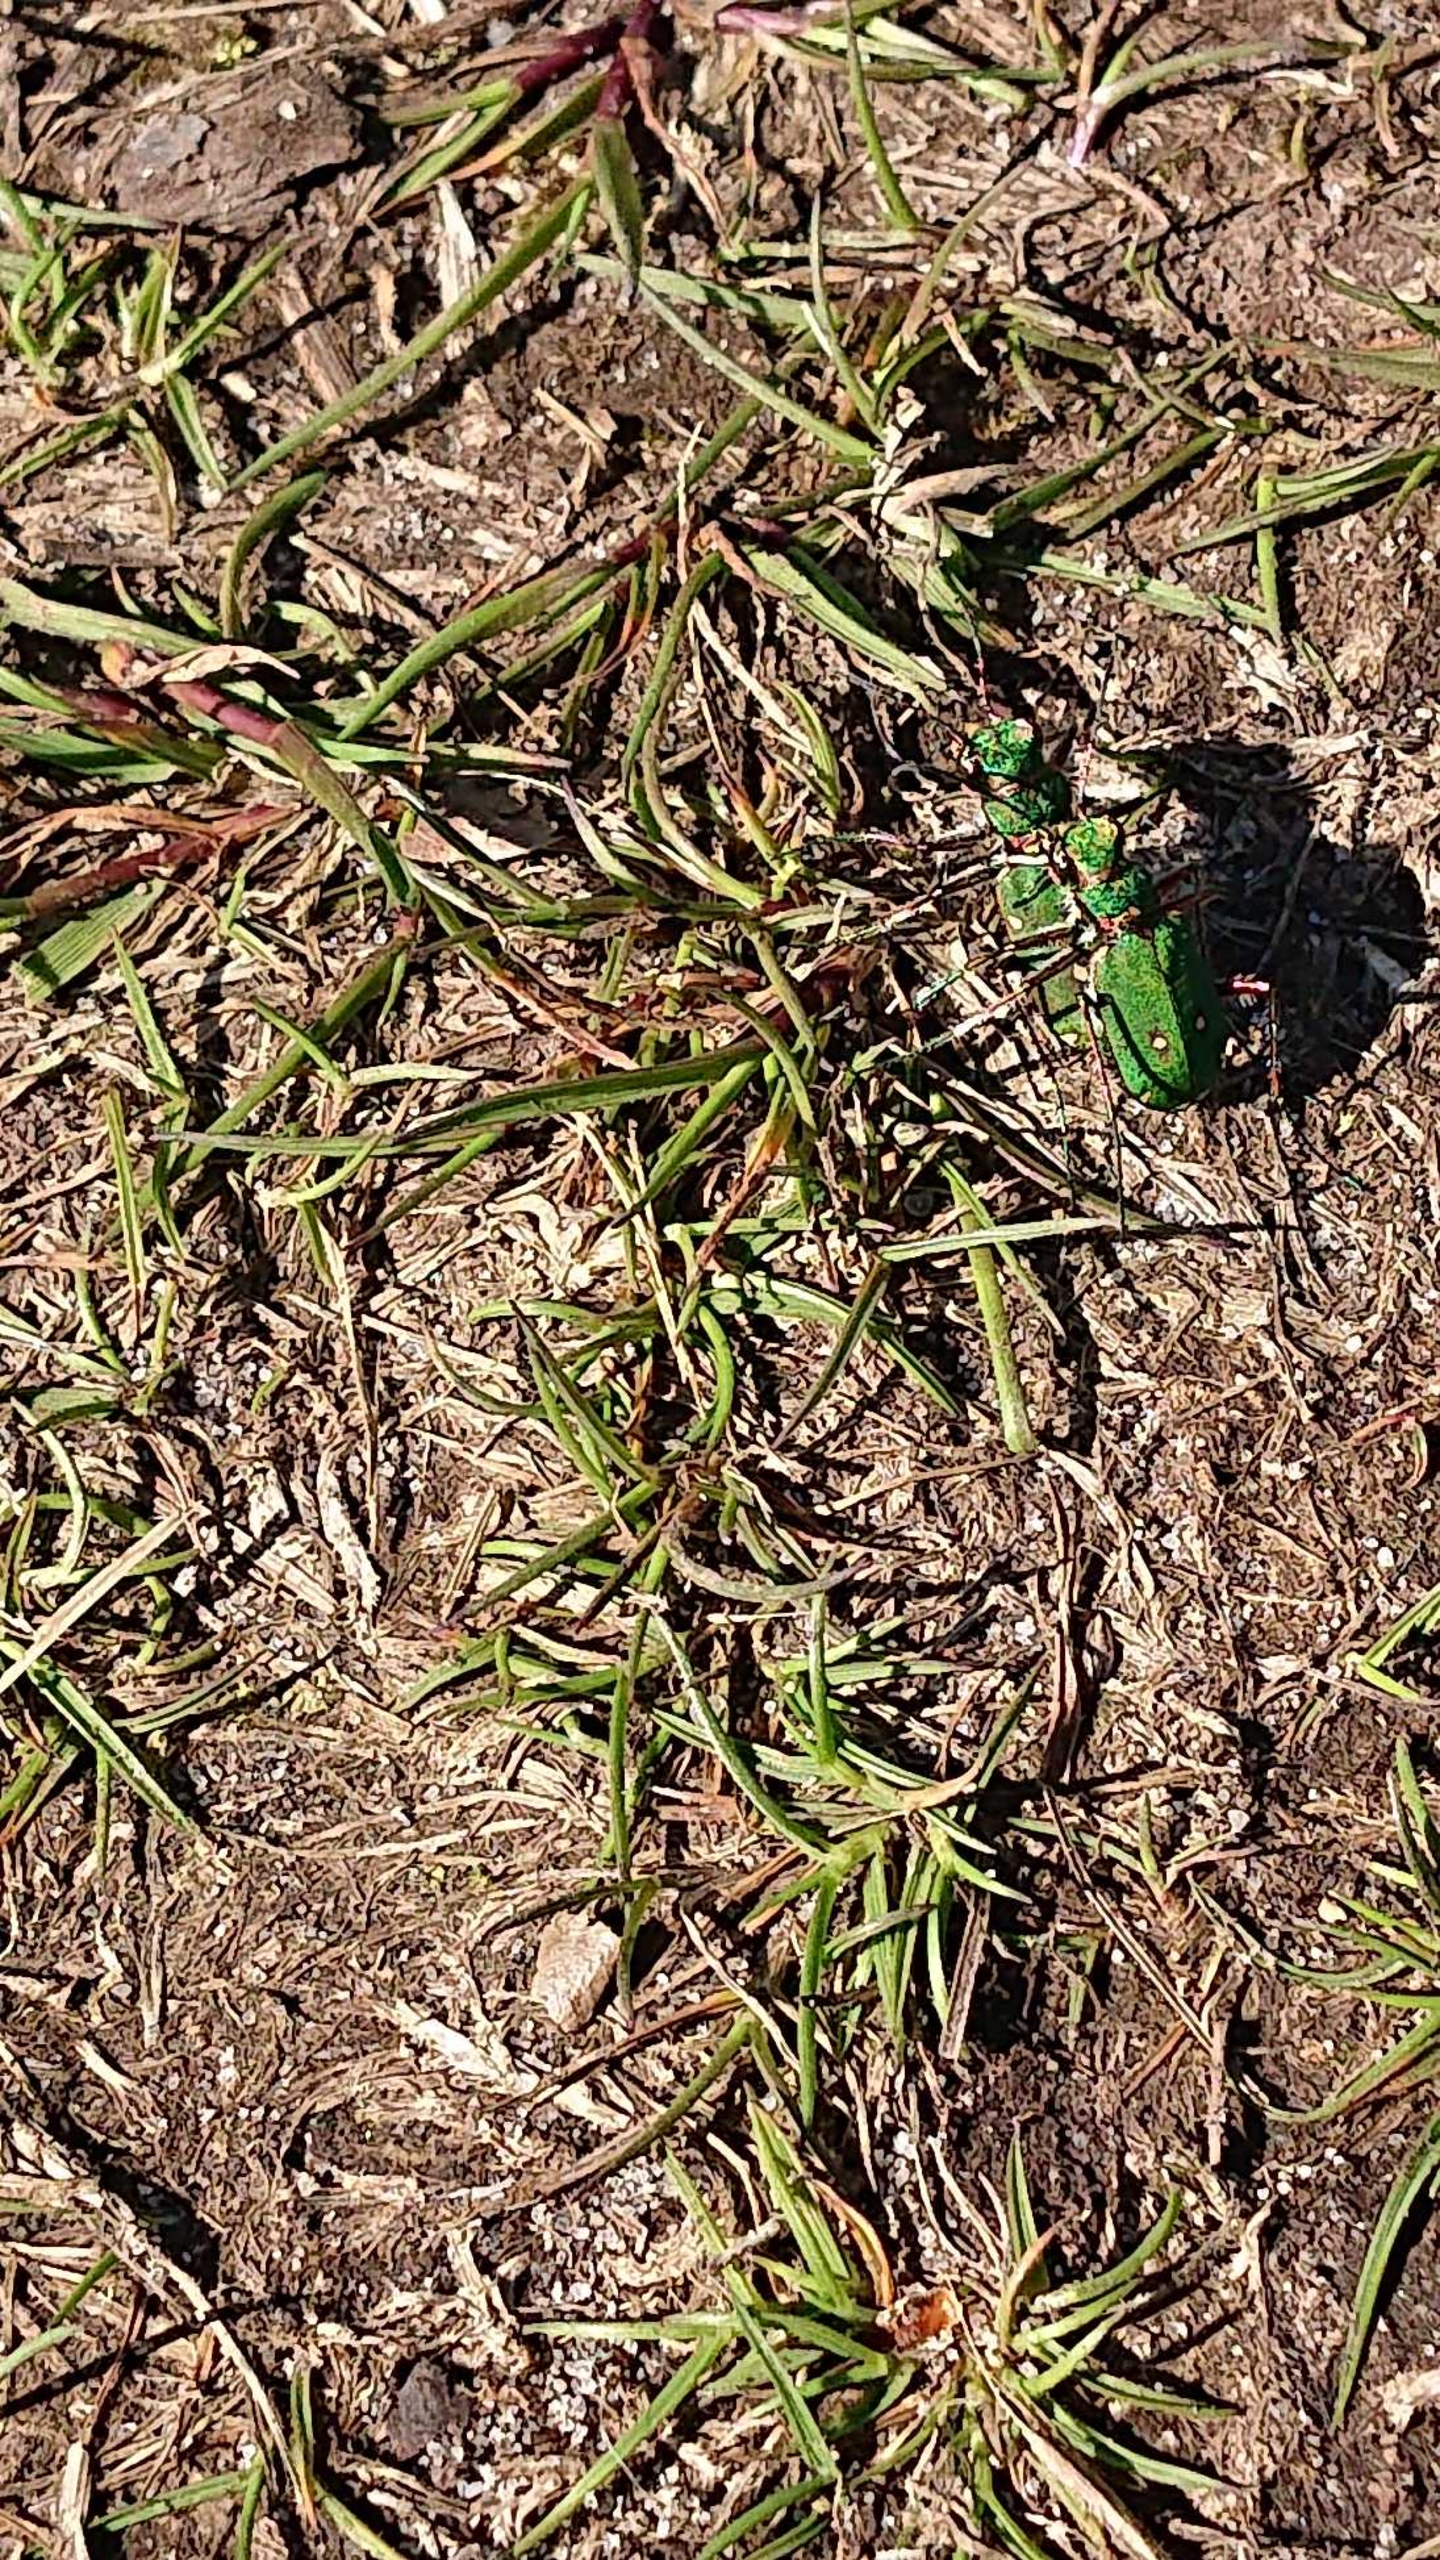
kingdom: Animalia
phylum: Arthropoda
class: Insecta
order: Coleoptera
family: Carabidae
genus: Cicindela
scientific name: Cicindela campestris
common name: Grøn sandspringer
